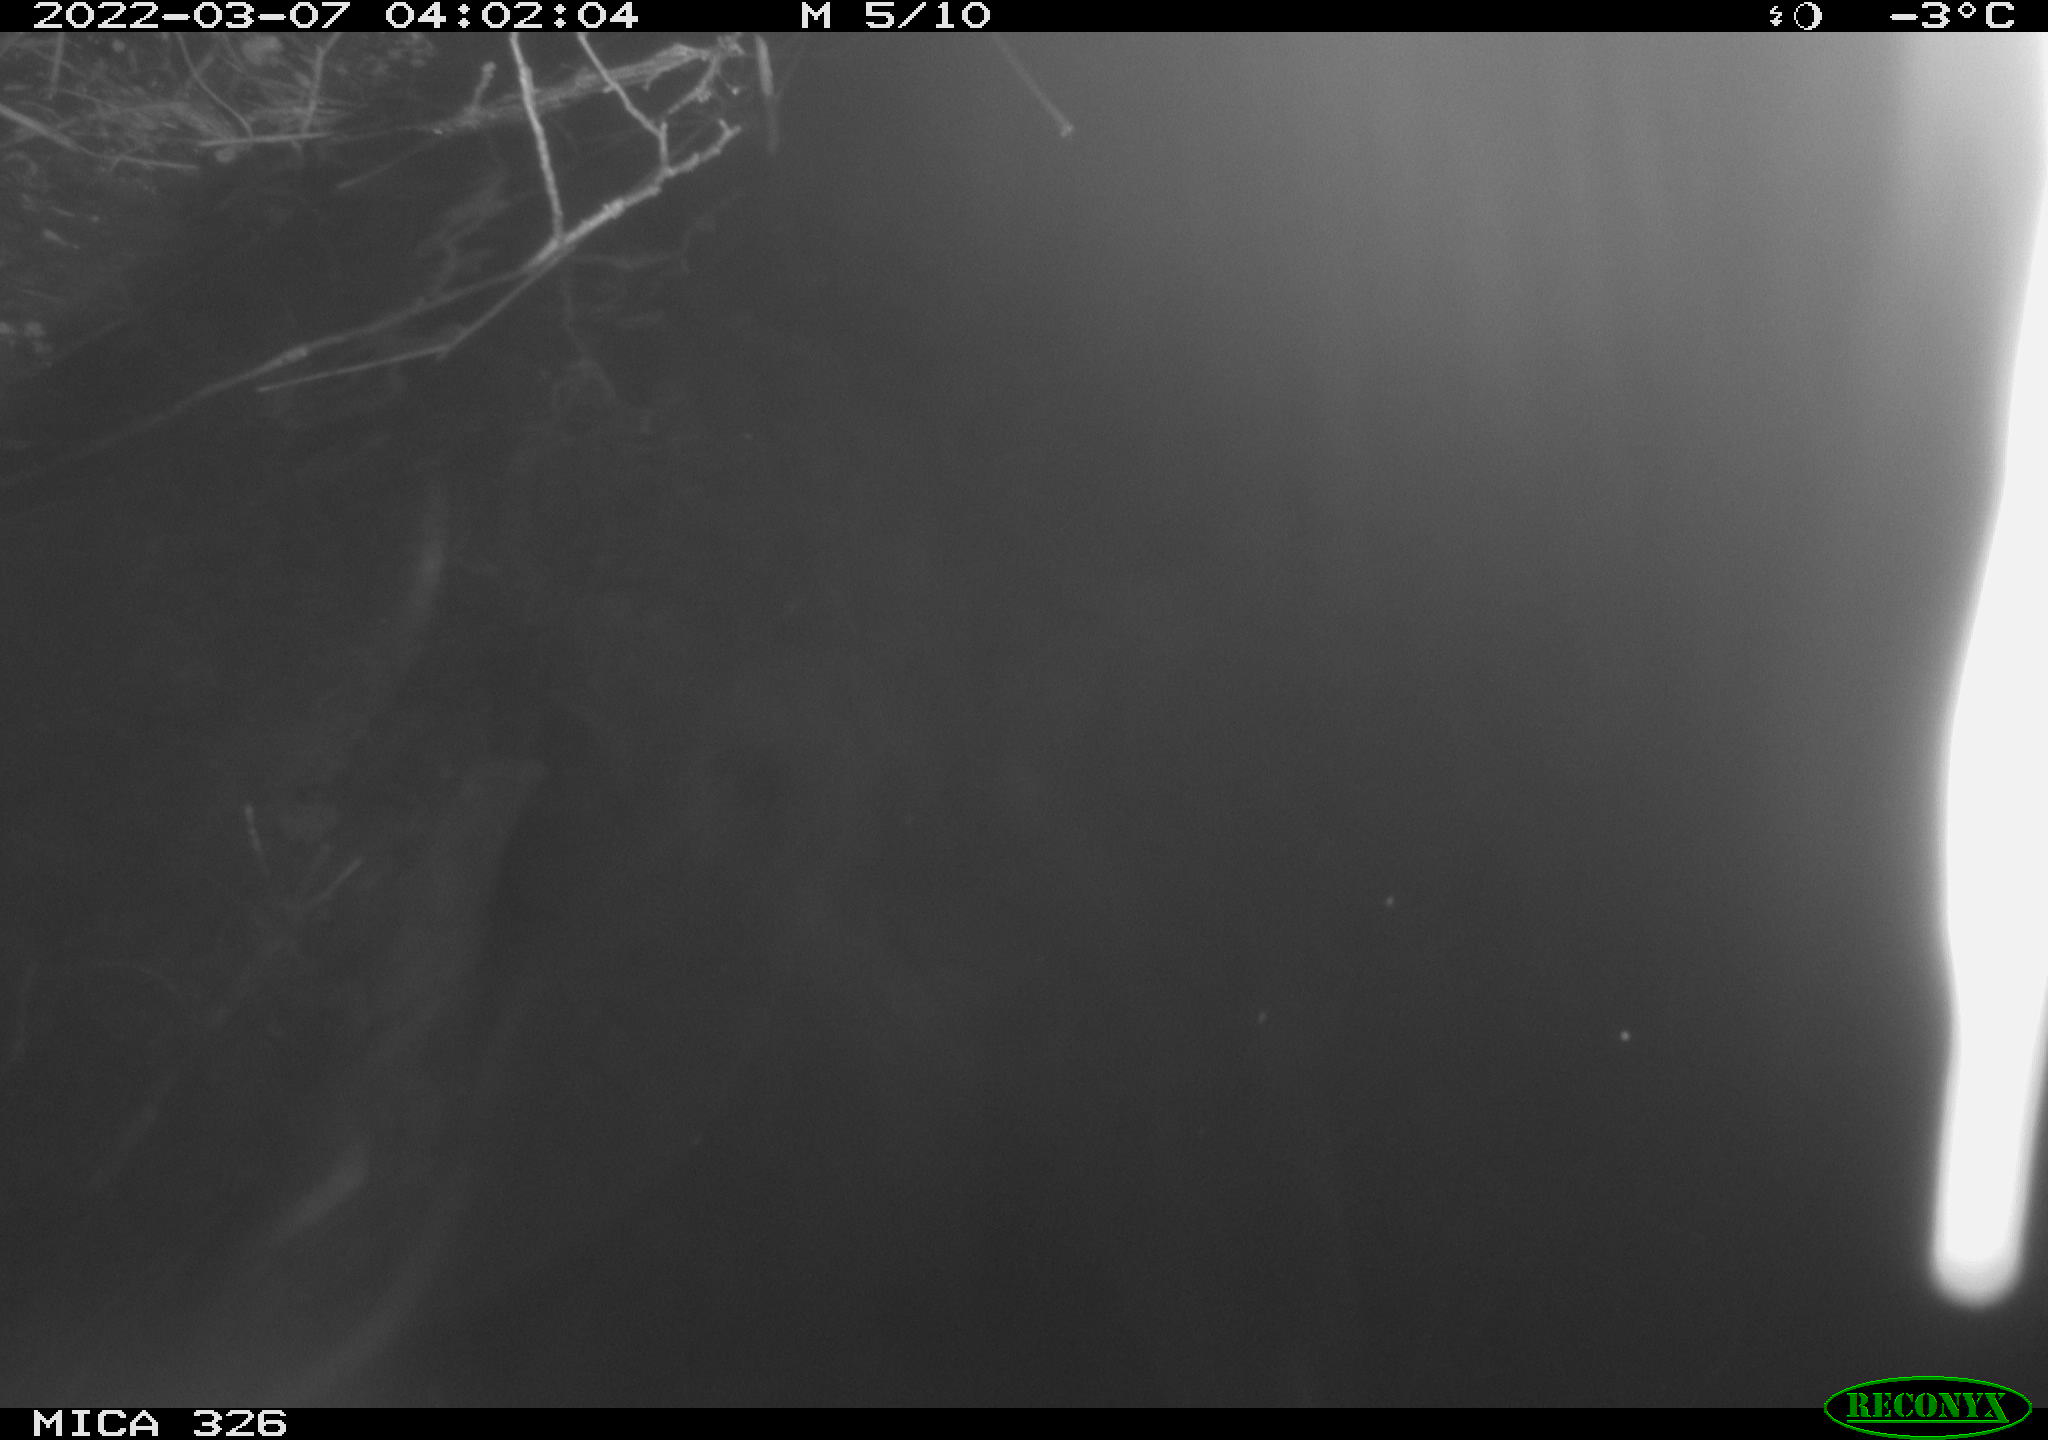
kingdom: Animalia
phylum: Chordata
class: Mammalia
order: Rodentia
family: Muridae
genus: Rattus
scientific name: Rattus norvegicus
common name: Brown rat
